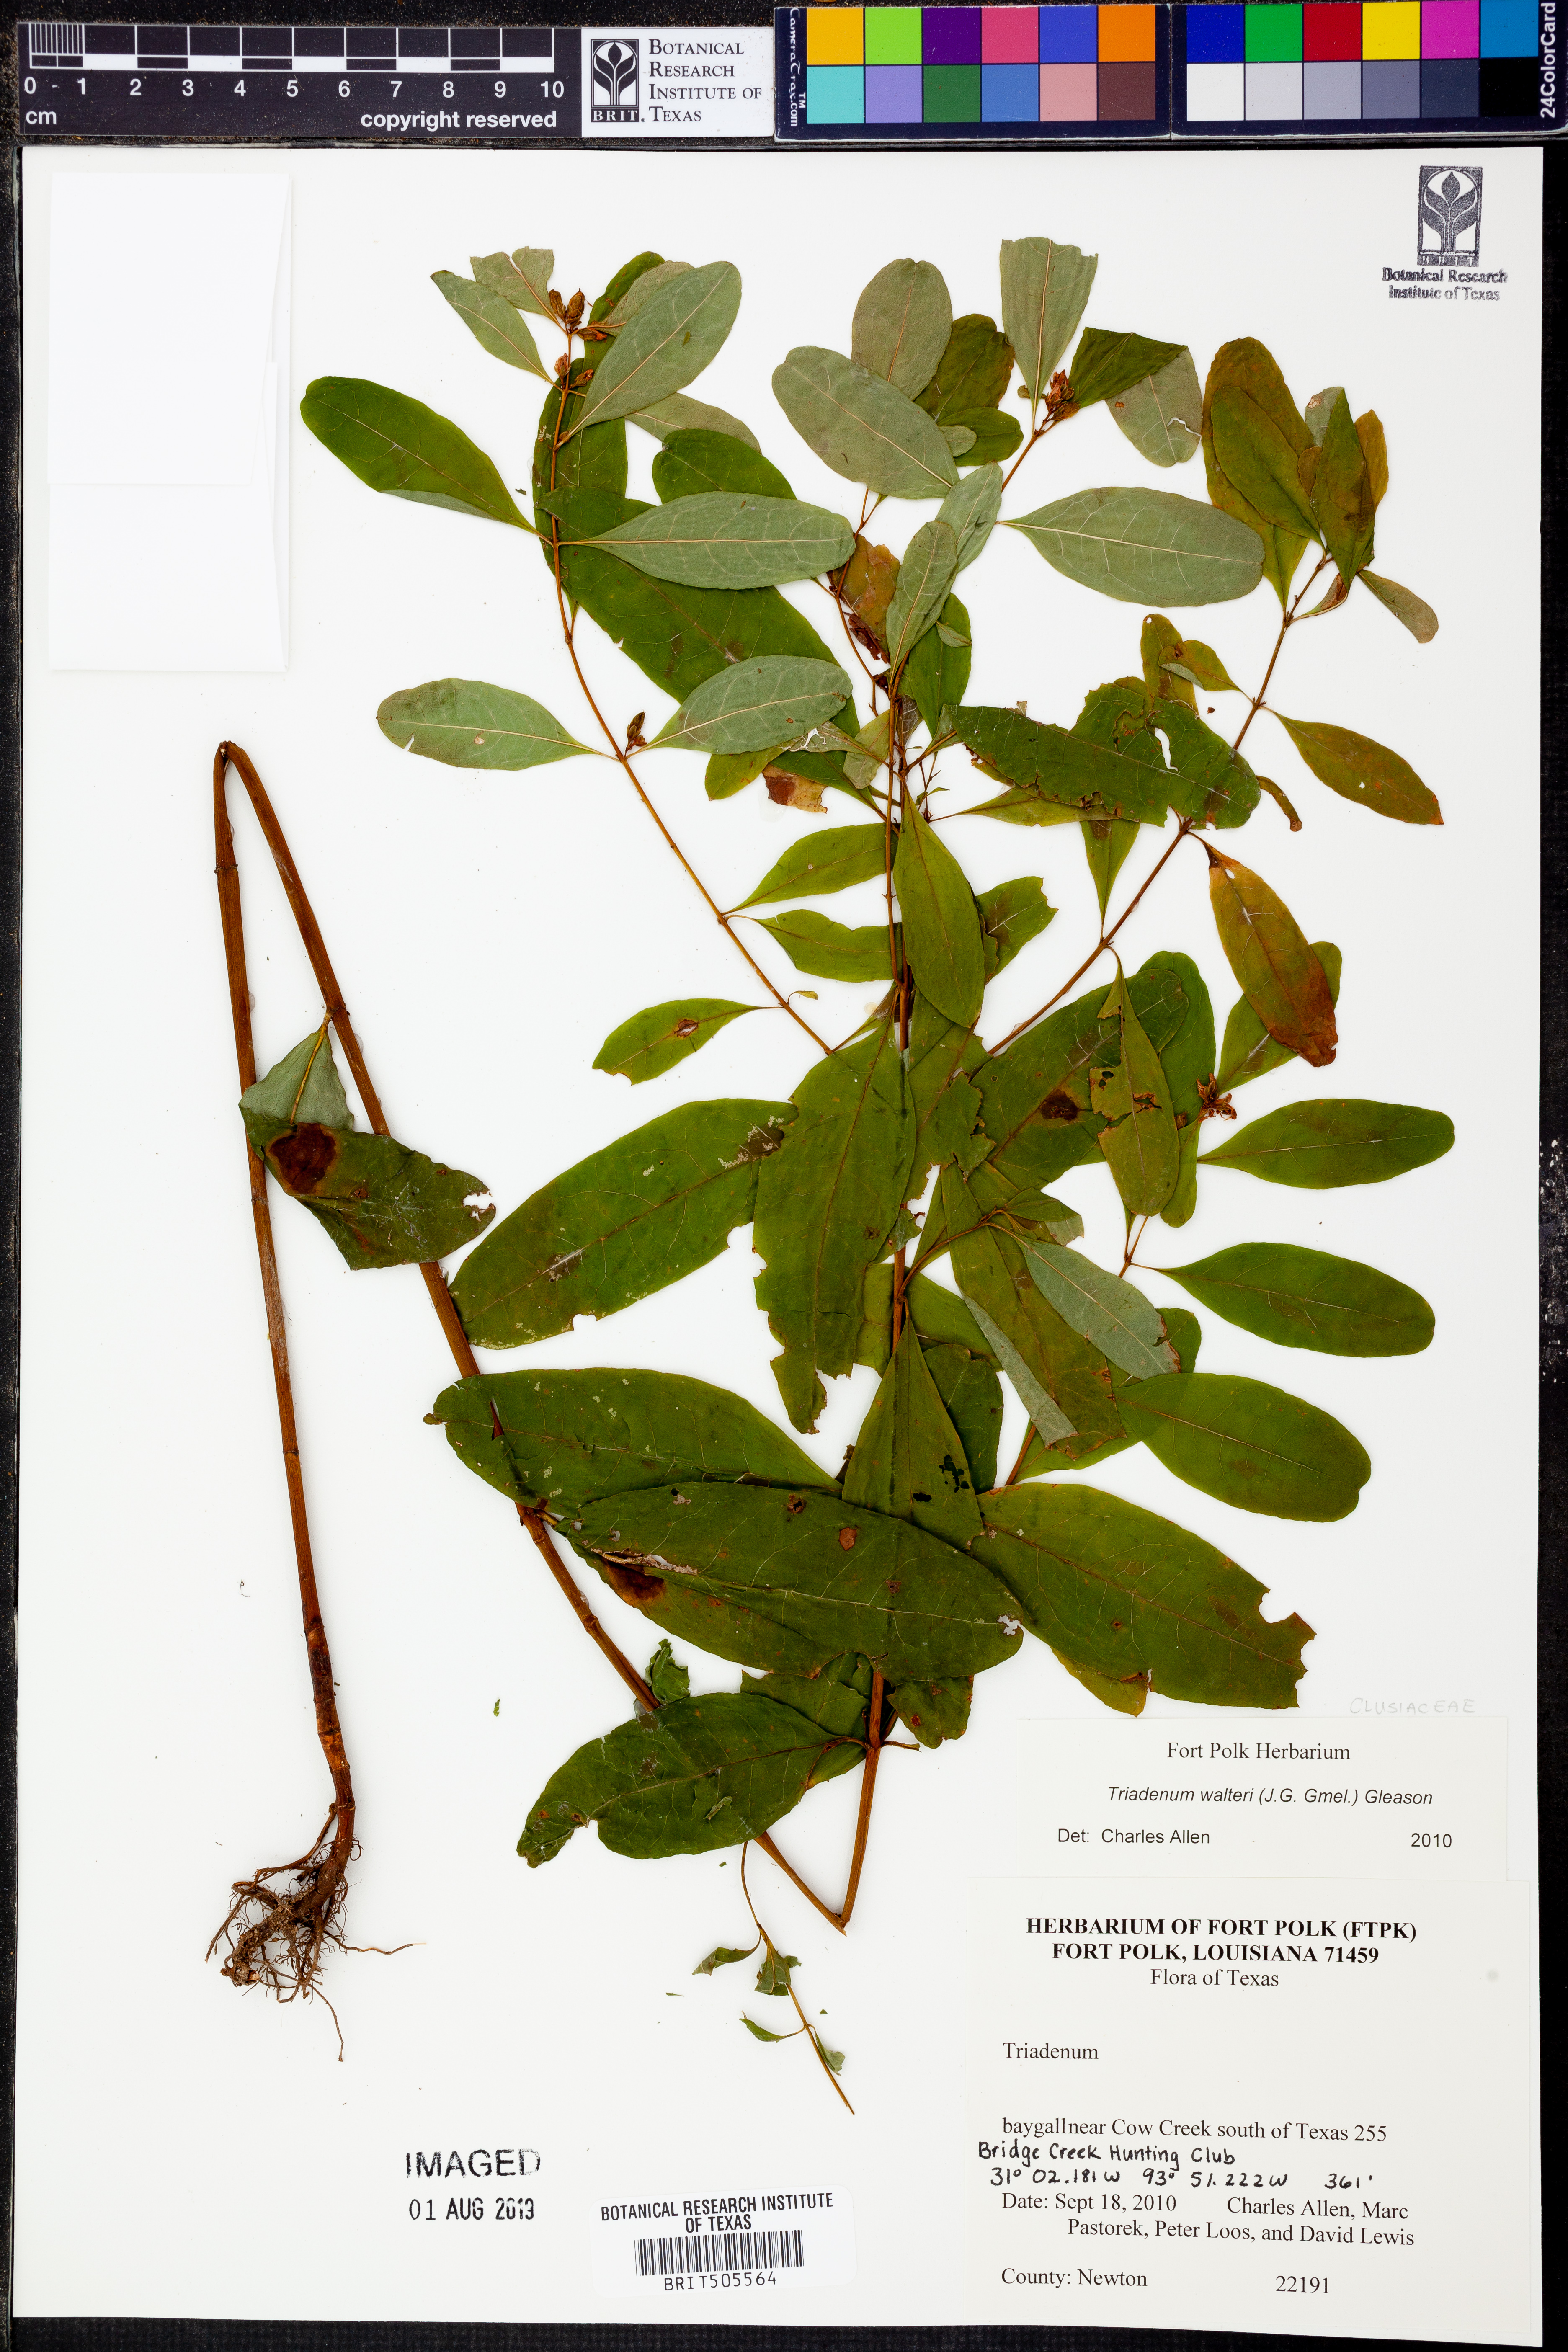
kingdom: Plantae
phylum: Tracheophyta
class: Magnoliopsida
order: Malpighiales
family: Hypericaceae
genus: Triadenum
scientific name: Triadenum walteri
